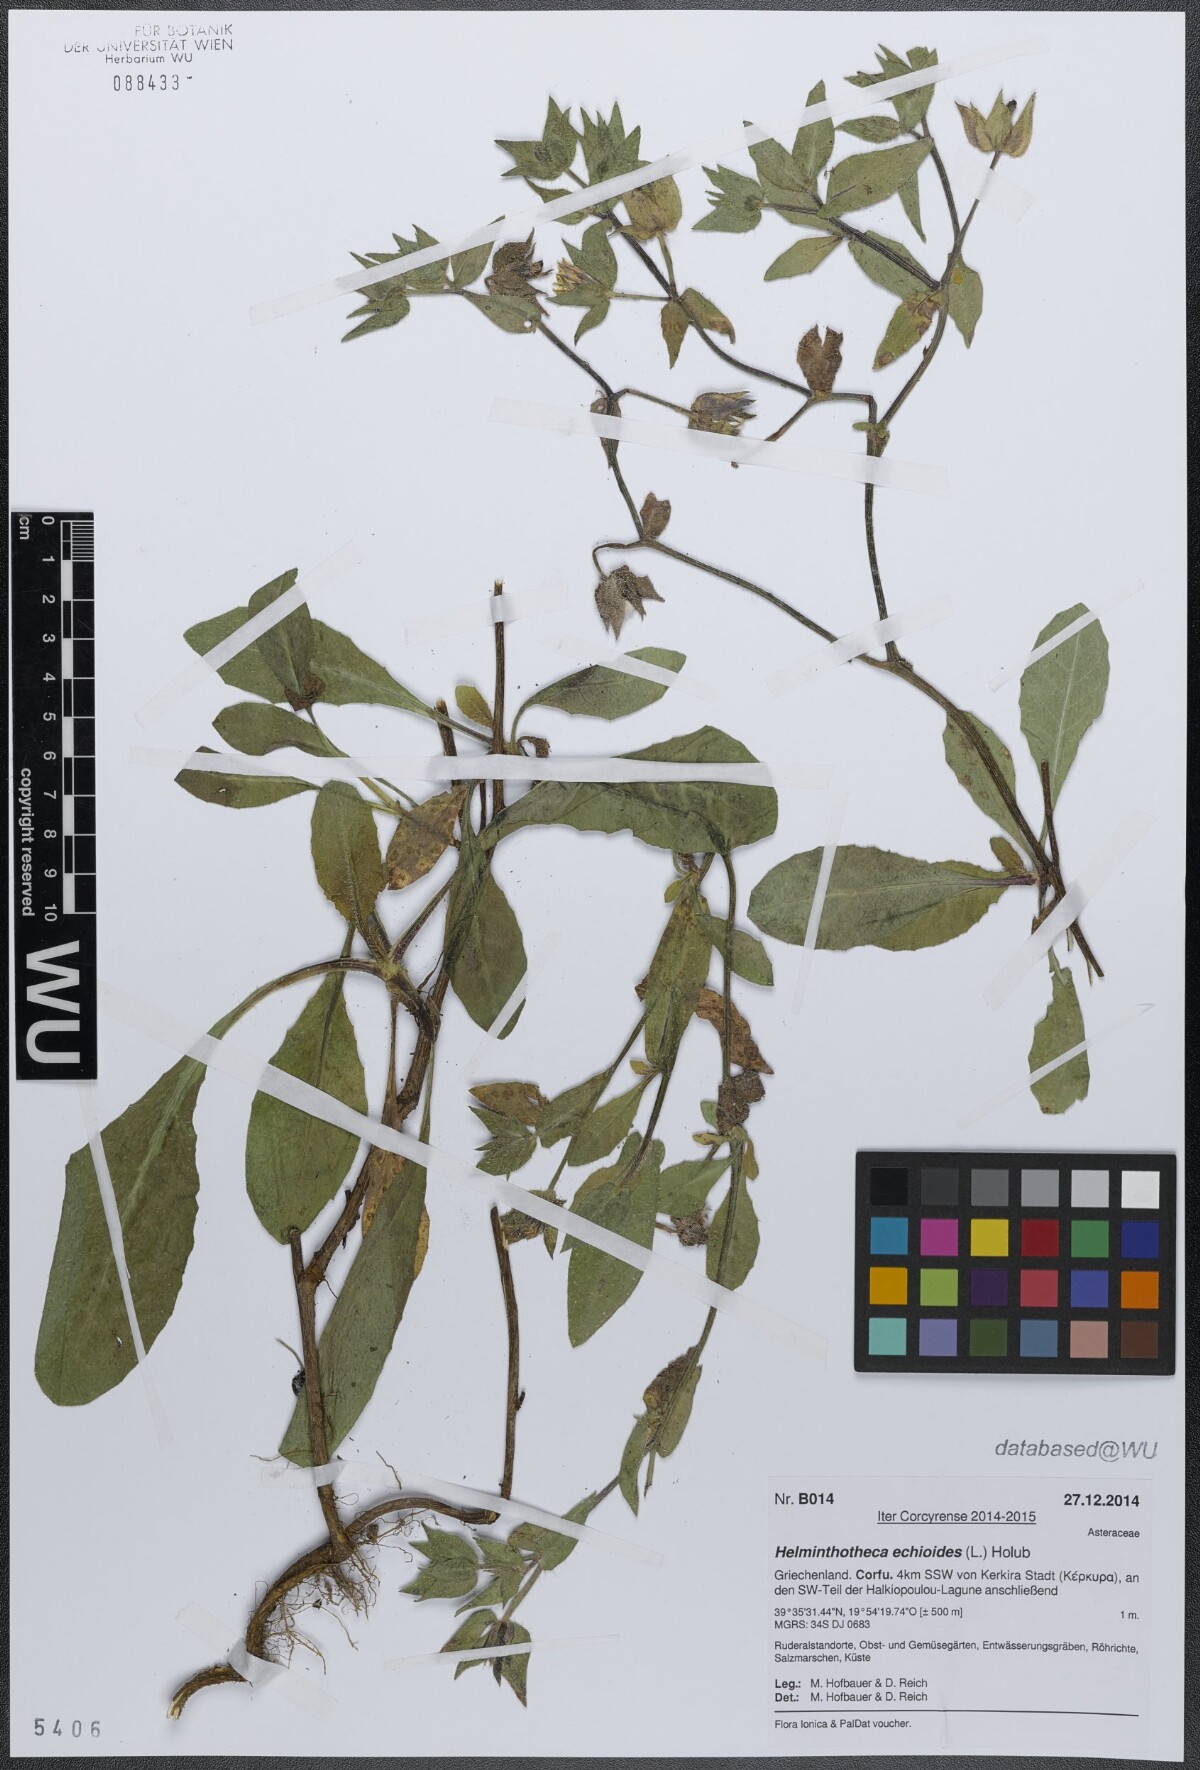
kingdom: Plantae
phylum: Tracheophyta
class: Magnoliopsida
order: Asterales
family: Asteraceae
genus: Helminthotheca
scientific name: Helminthotheca echioides
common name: Ox-tongue
